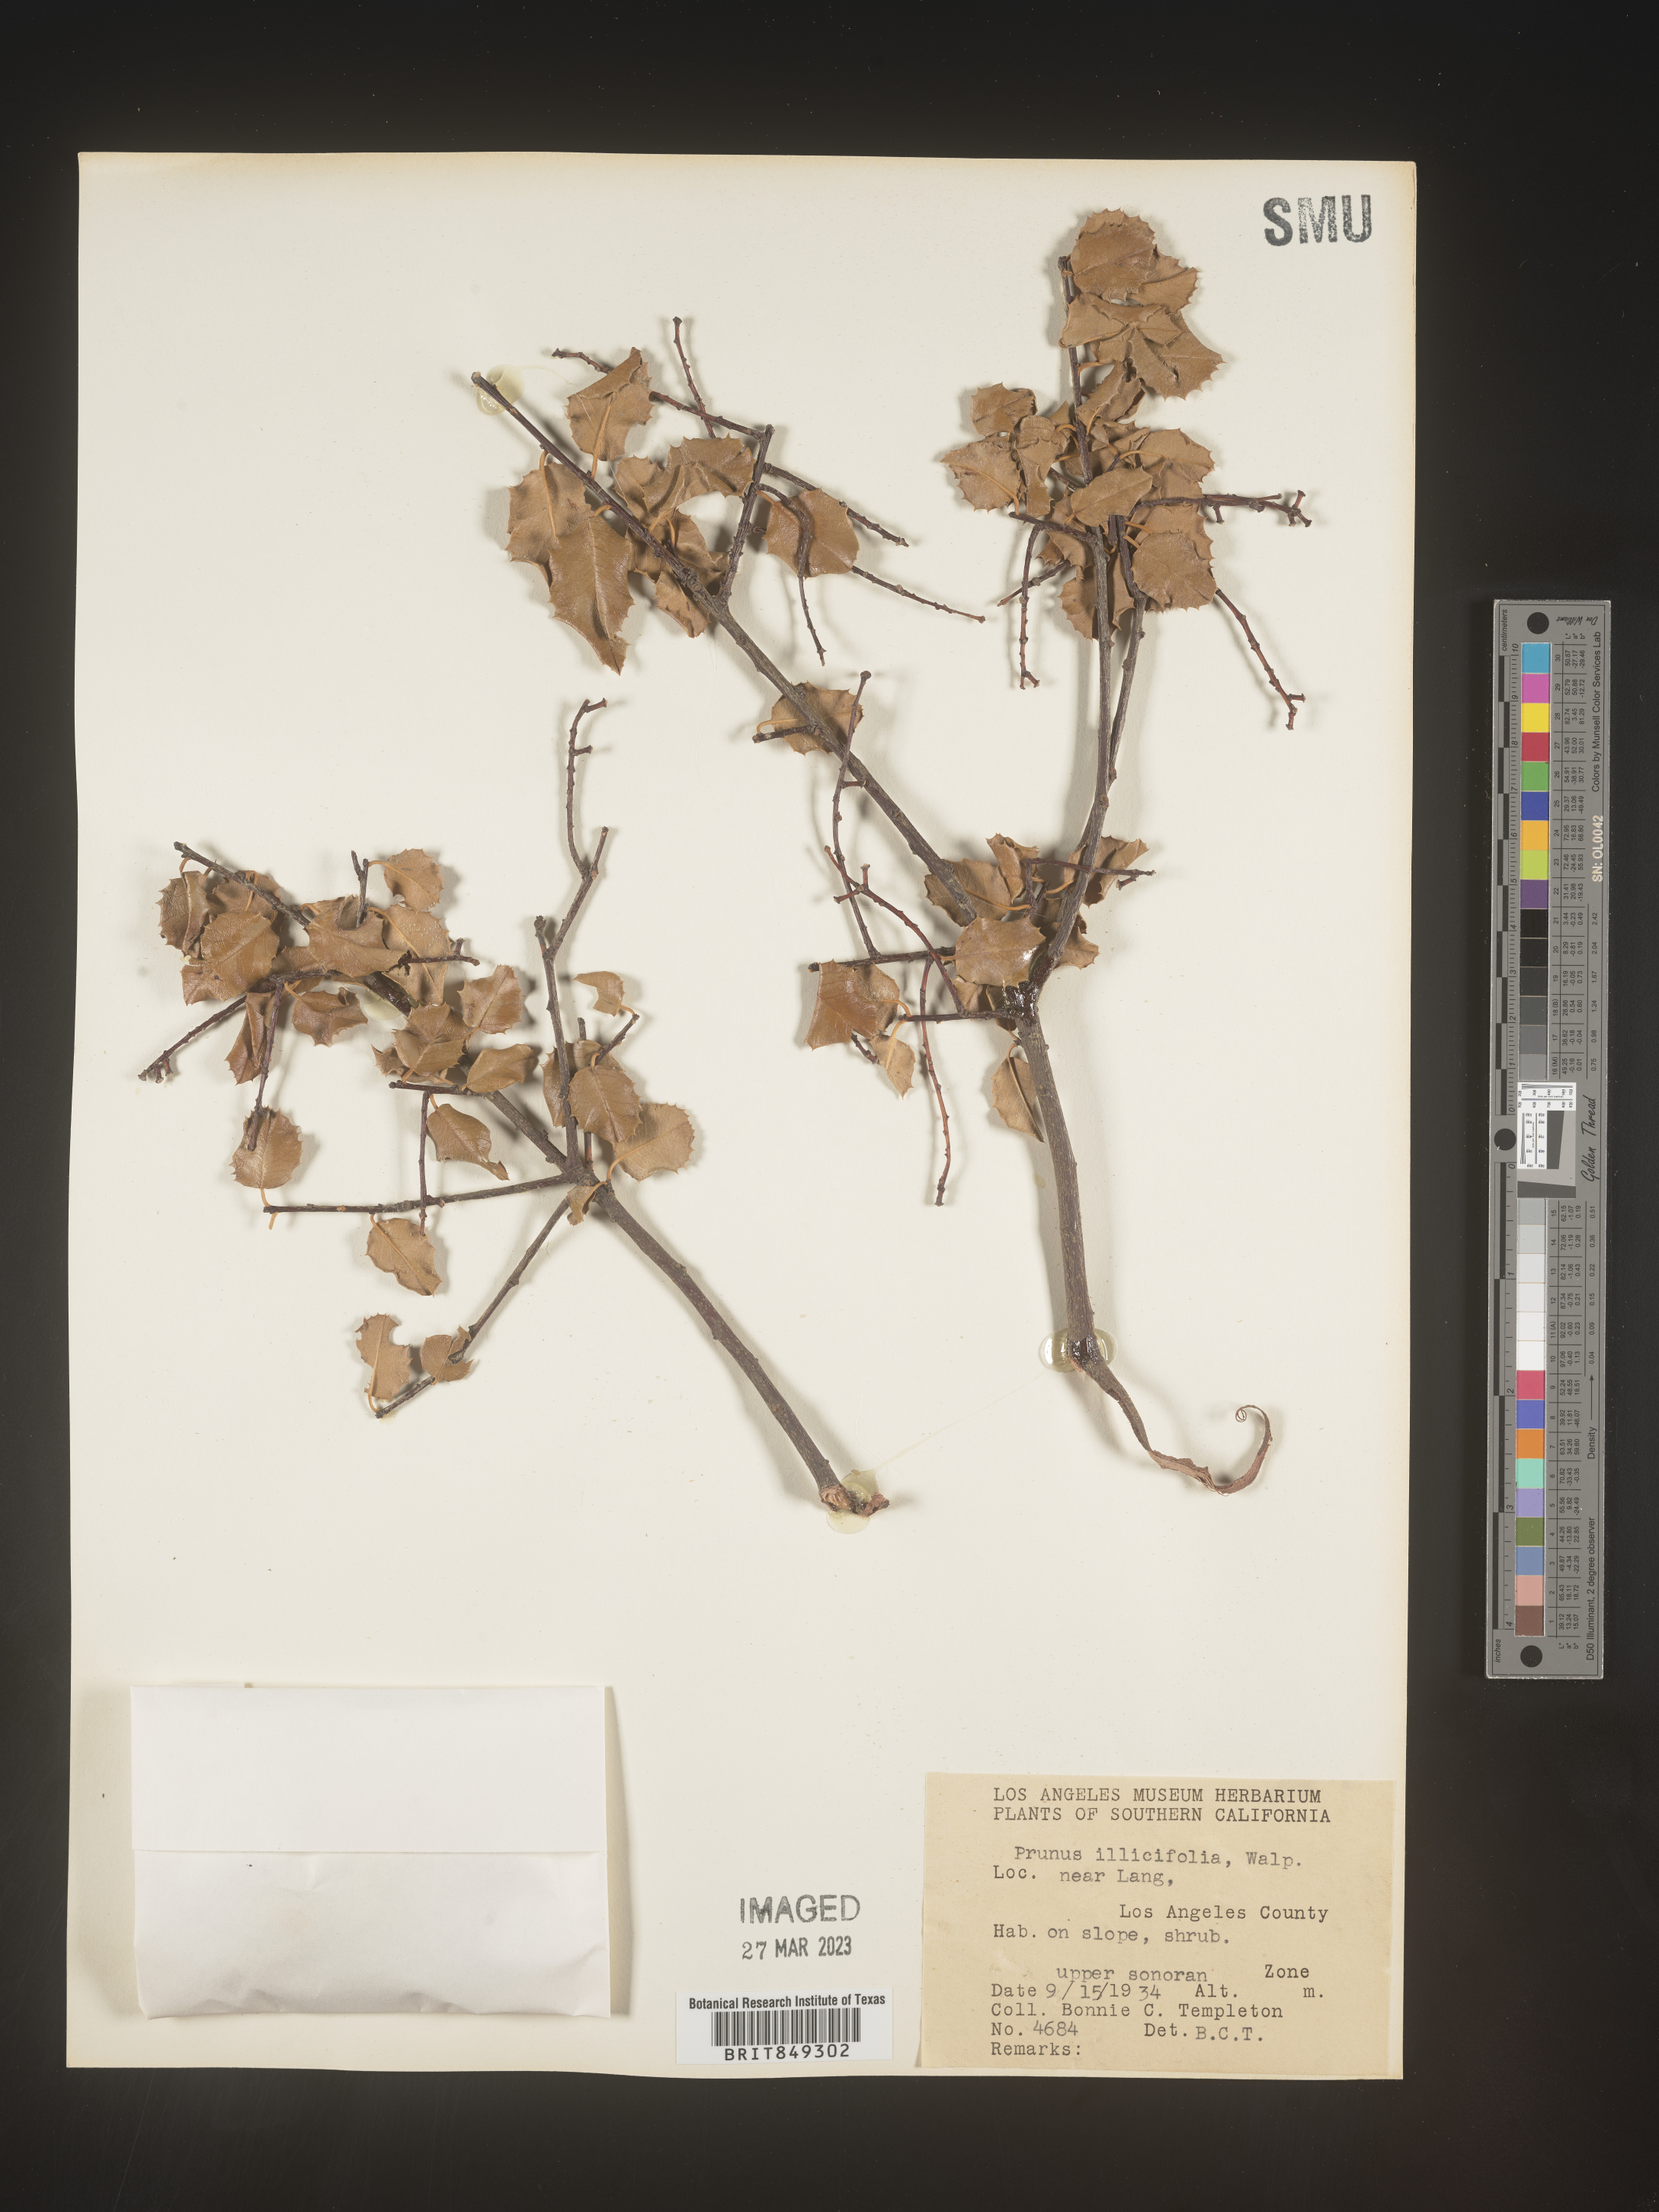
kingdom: Plantae
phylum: Tracheophyta
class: Magnoliopsida
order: Rosales
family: Rosaceae
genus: Prunus
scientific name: Prunus
